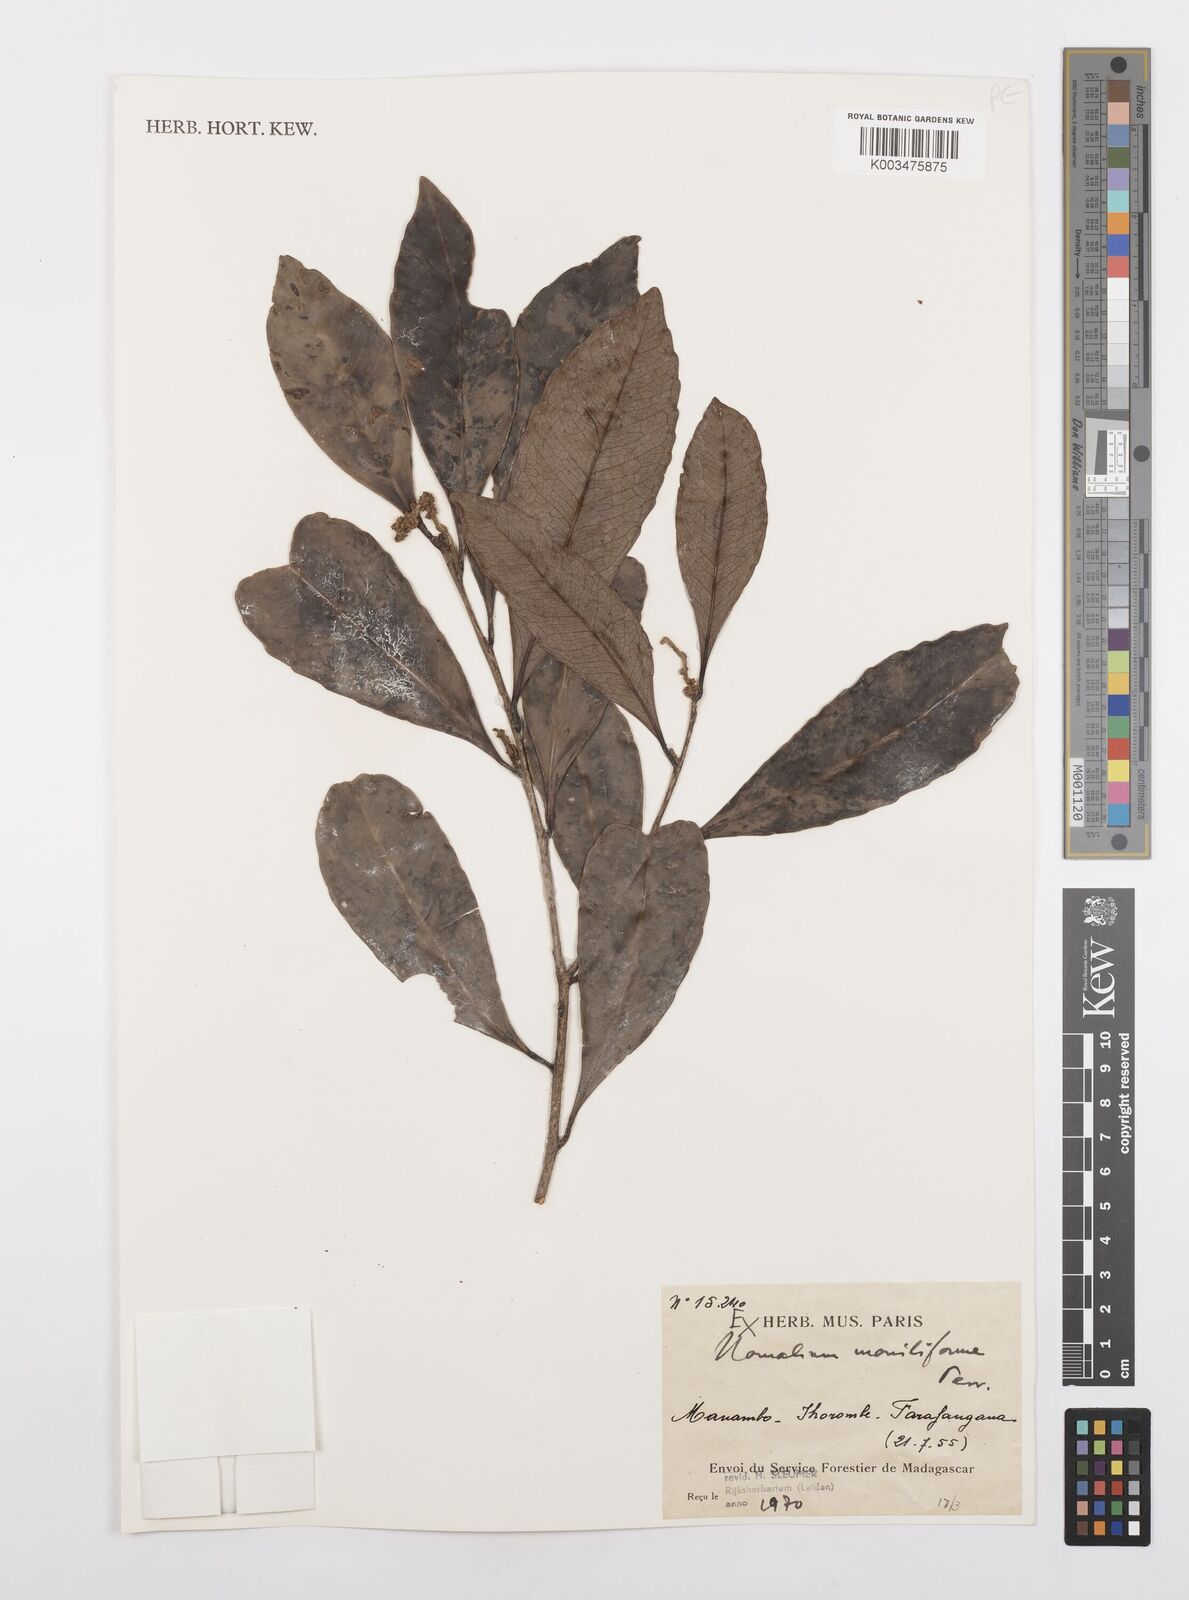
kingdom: Plantae
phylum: Tracheophyta
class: Magnoliopsida
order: Malpighiales
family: Salicaceae
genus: Homalium
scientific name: Homalium moniliforme
